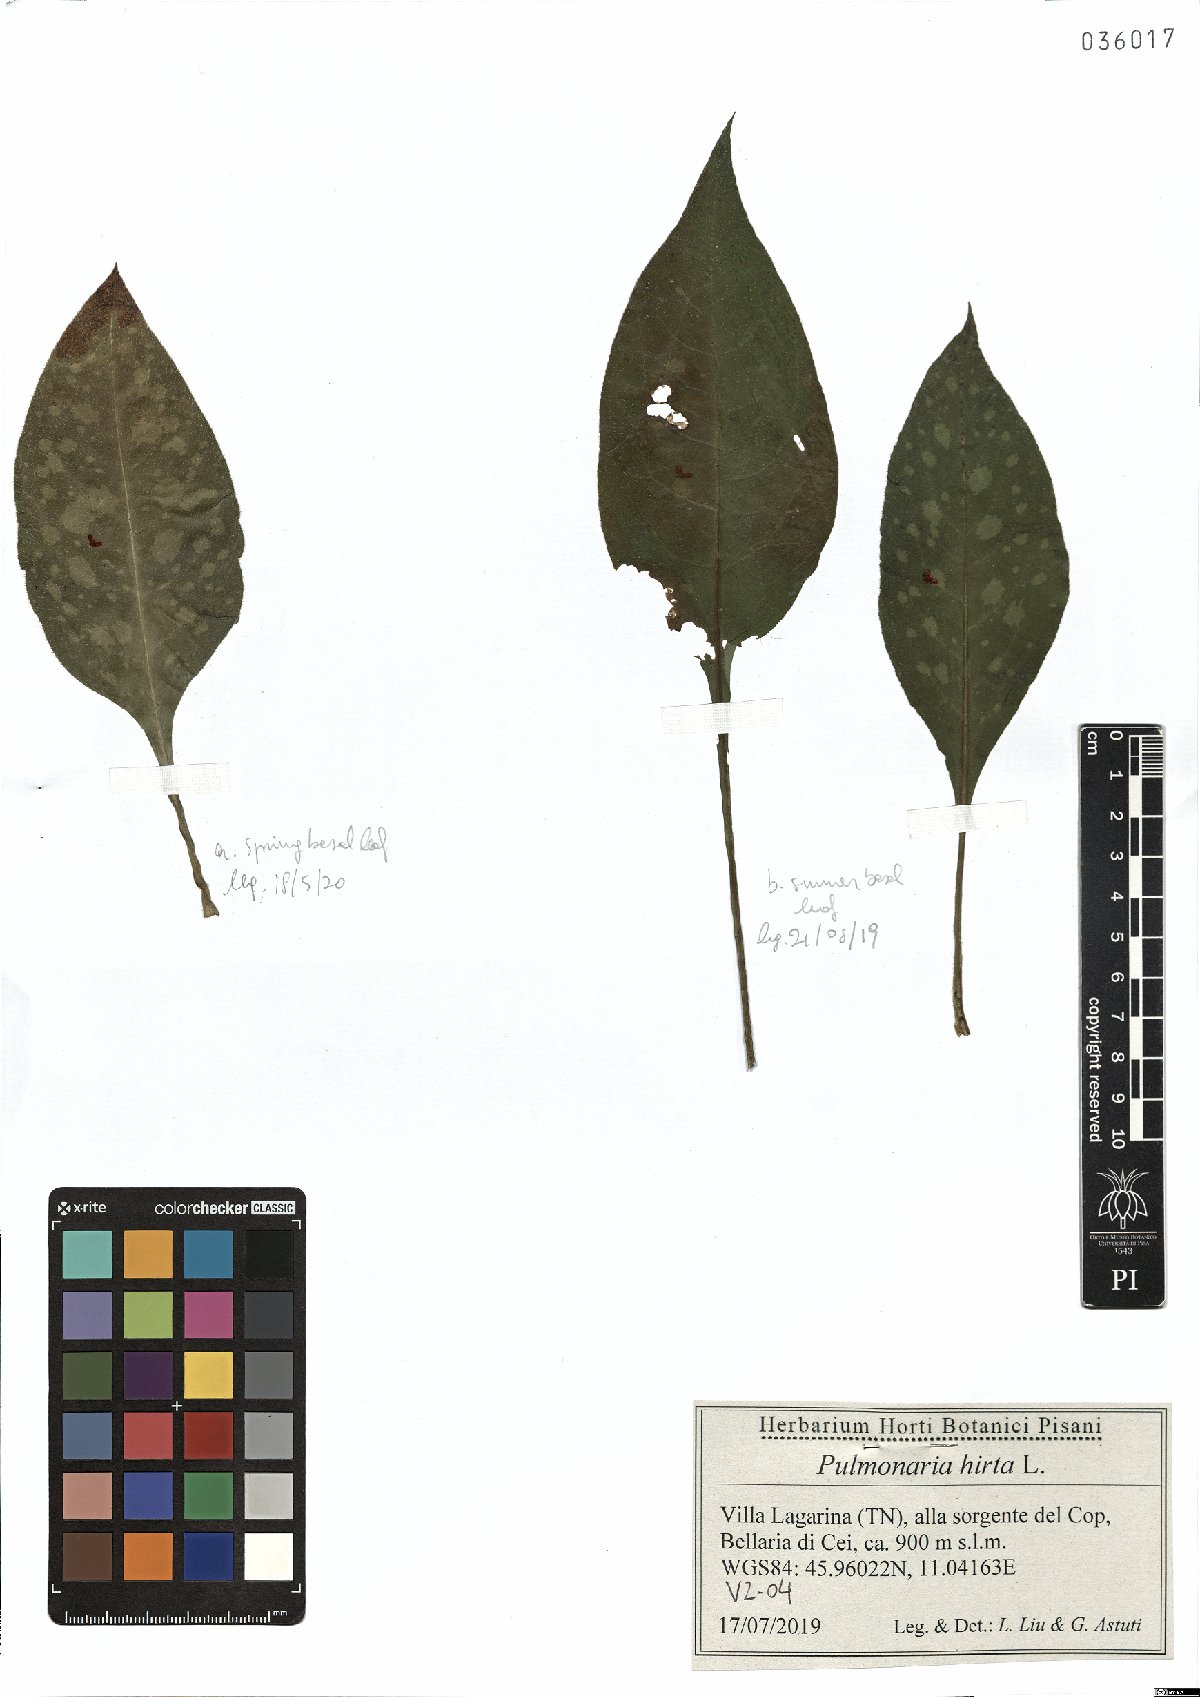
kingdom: Plantae
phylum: Tracheophyta
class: Magnoliopsida
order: Boraginales
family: Boraginaceae
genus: Pulmonaria
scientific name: Pulmonaria hirta
